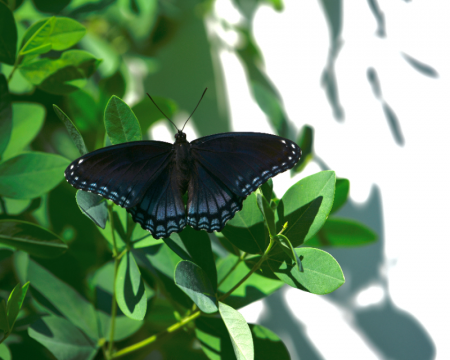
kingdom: Animalia
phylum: Arthropoda
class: Insecta
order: Lepidoptera
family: Nymphalidae
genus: Limenitis
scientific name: Limenitis arthemis
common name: Red-spotted Admiral
